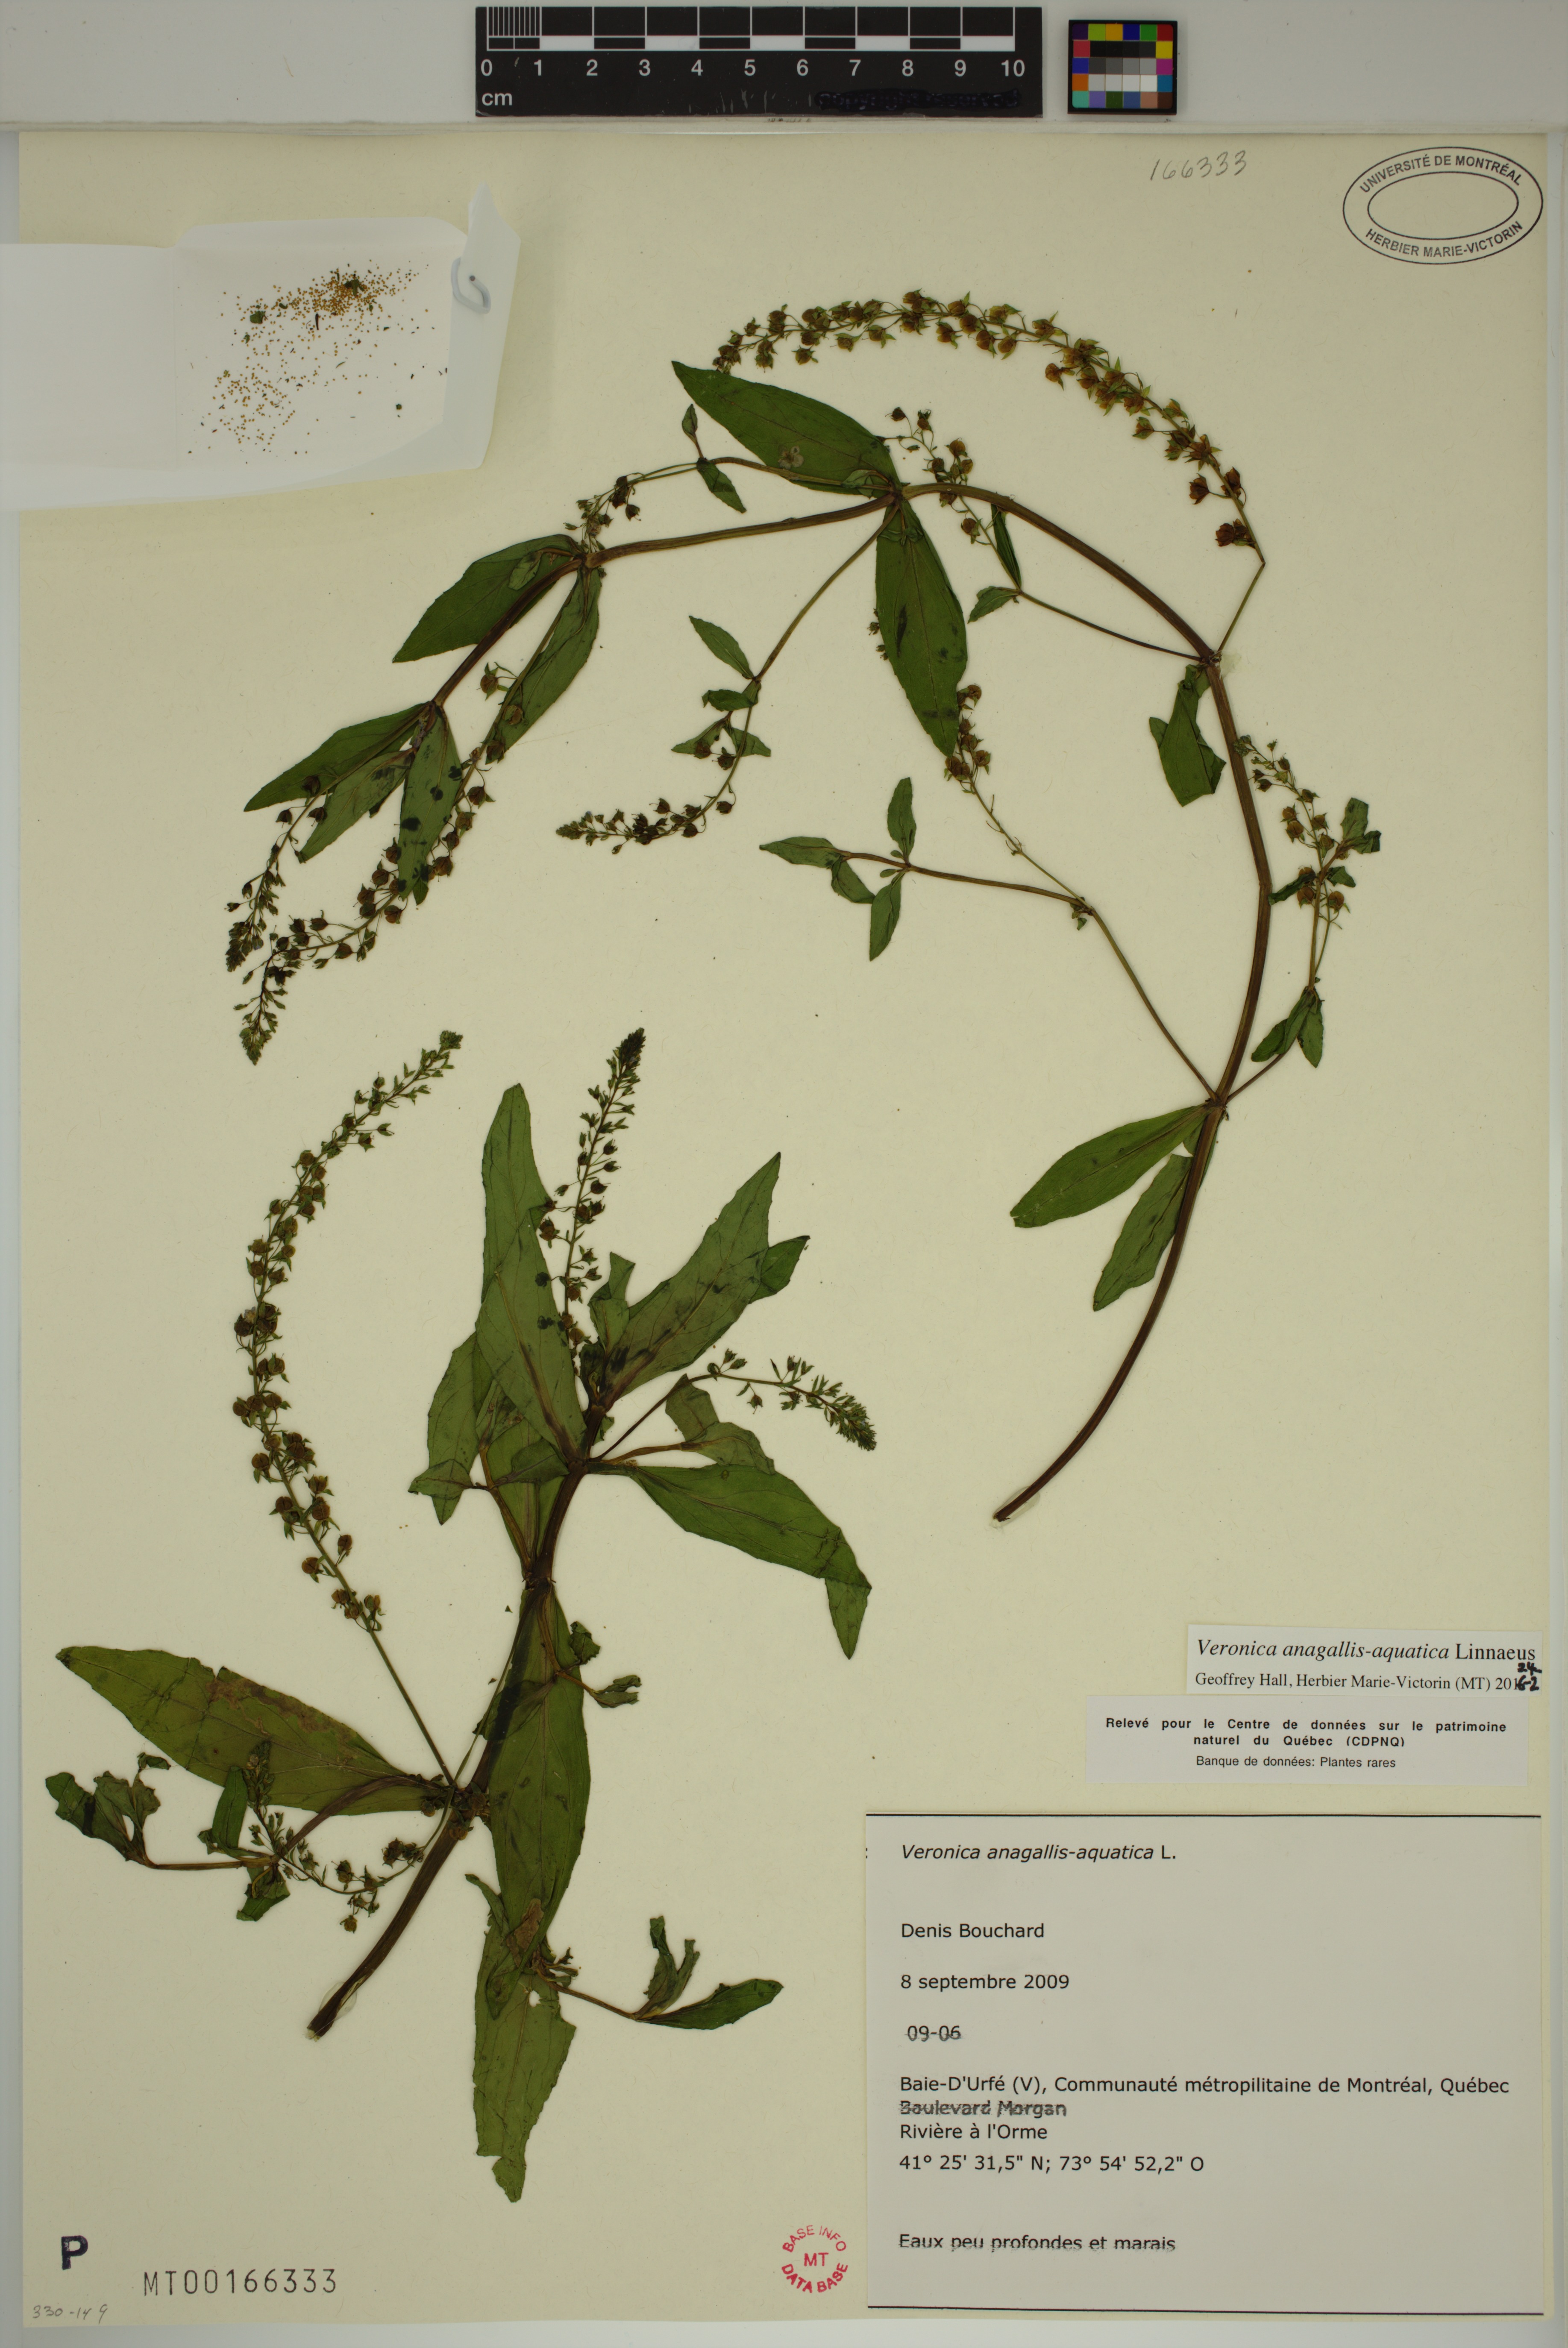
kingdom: Plantae
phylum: Tracheophyta
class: Magnoliopsida
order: Lamiales
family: Plantaginaceae
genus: Veronica
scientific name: Veronica anagallis-aquatica
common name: Water speedwell
